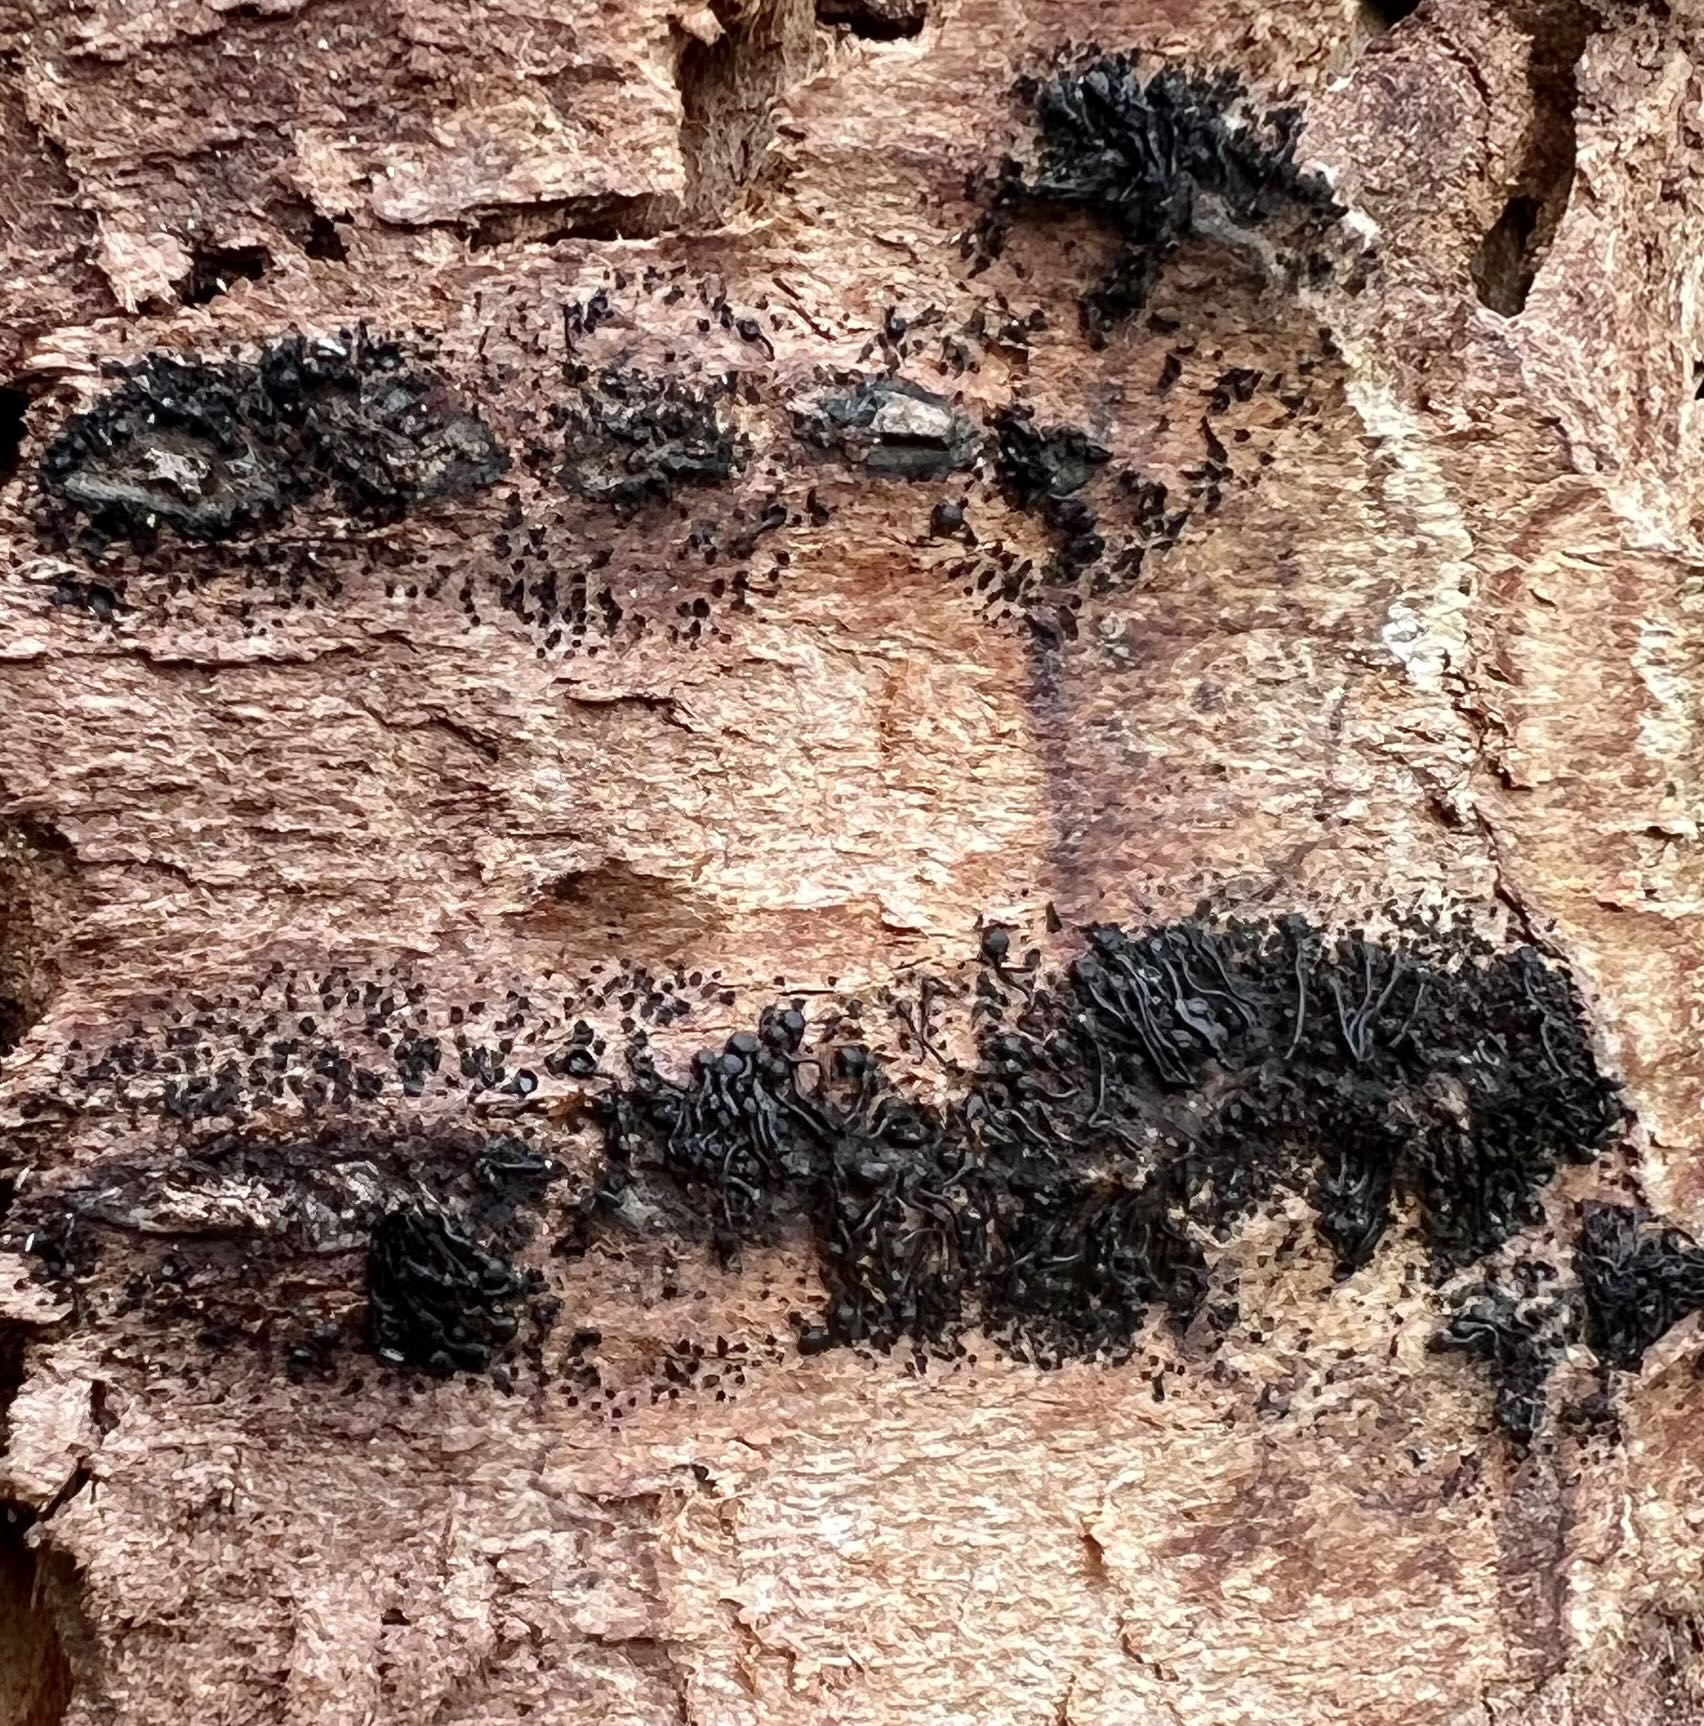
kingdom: Fungi
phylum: Ascomycota
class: Sordariomycetes
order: Calosphaeriales
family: Calosphaeriaceae
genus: Calosphaeria
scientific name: Calosphaeria pulchella
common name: smuk slyngkerne
